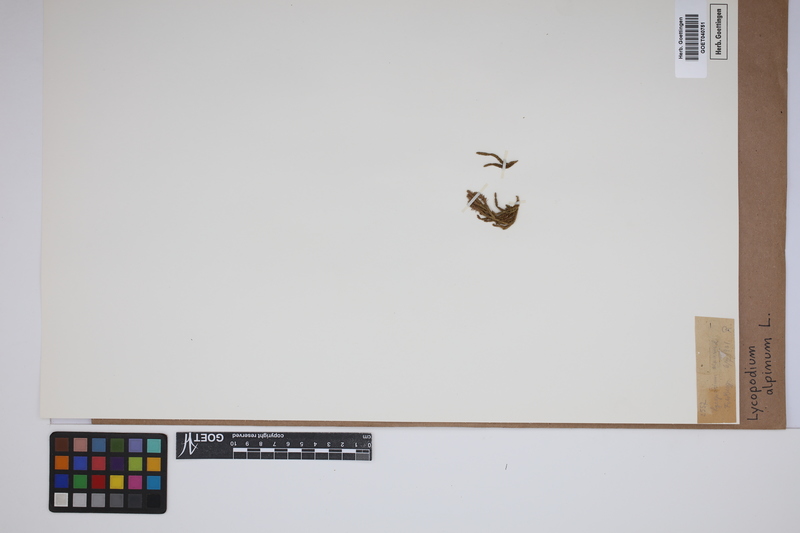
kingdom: Plantae
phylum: Tracheophyta
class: Lycopodiopsida
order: Lycopodiales
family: Lycopodiaceae
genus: Diphasiastrum
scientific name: Diphasiastrum alpinum
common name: Alpine clubmoss
